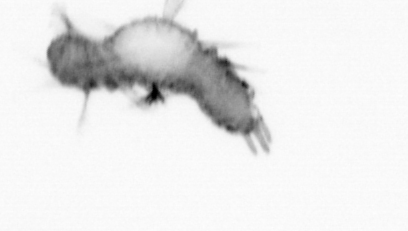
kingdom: Animalia
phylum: Annelida
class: Polychaeta
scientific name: Polychaeta
